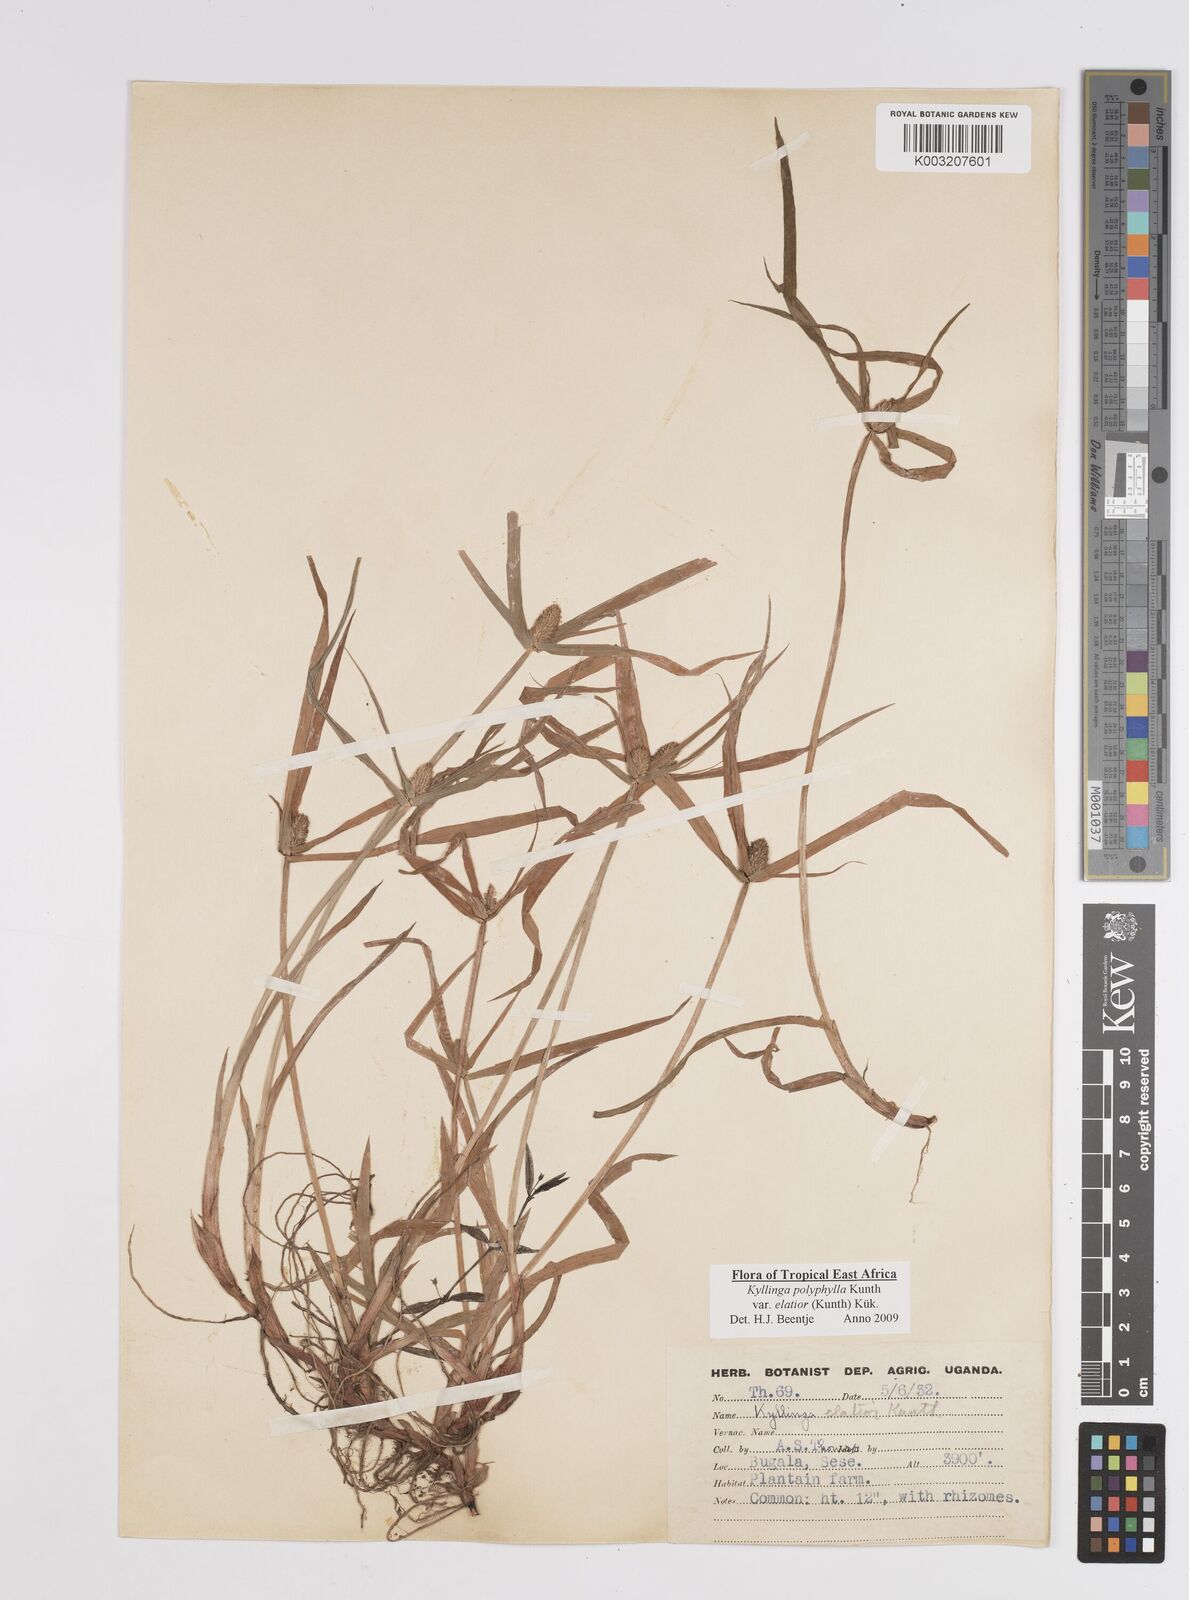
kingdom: Plantae
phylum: Tracheophyta
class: Liliopsida
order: Poales
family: Cyperaceae
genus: Cyperus
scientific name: Cyperus
